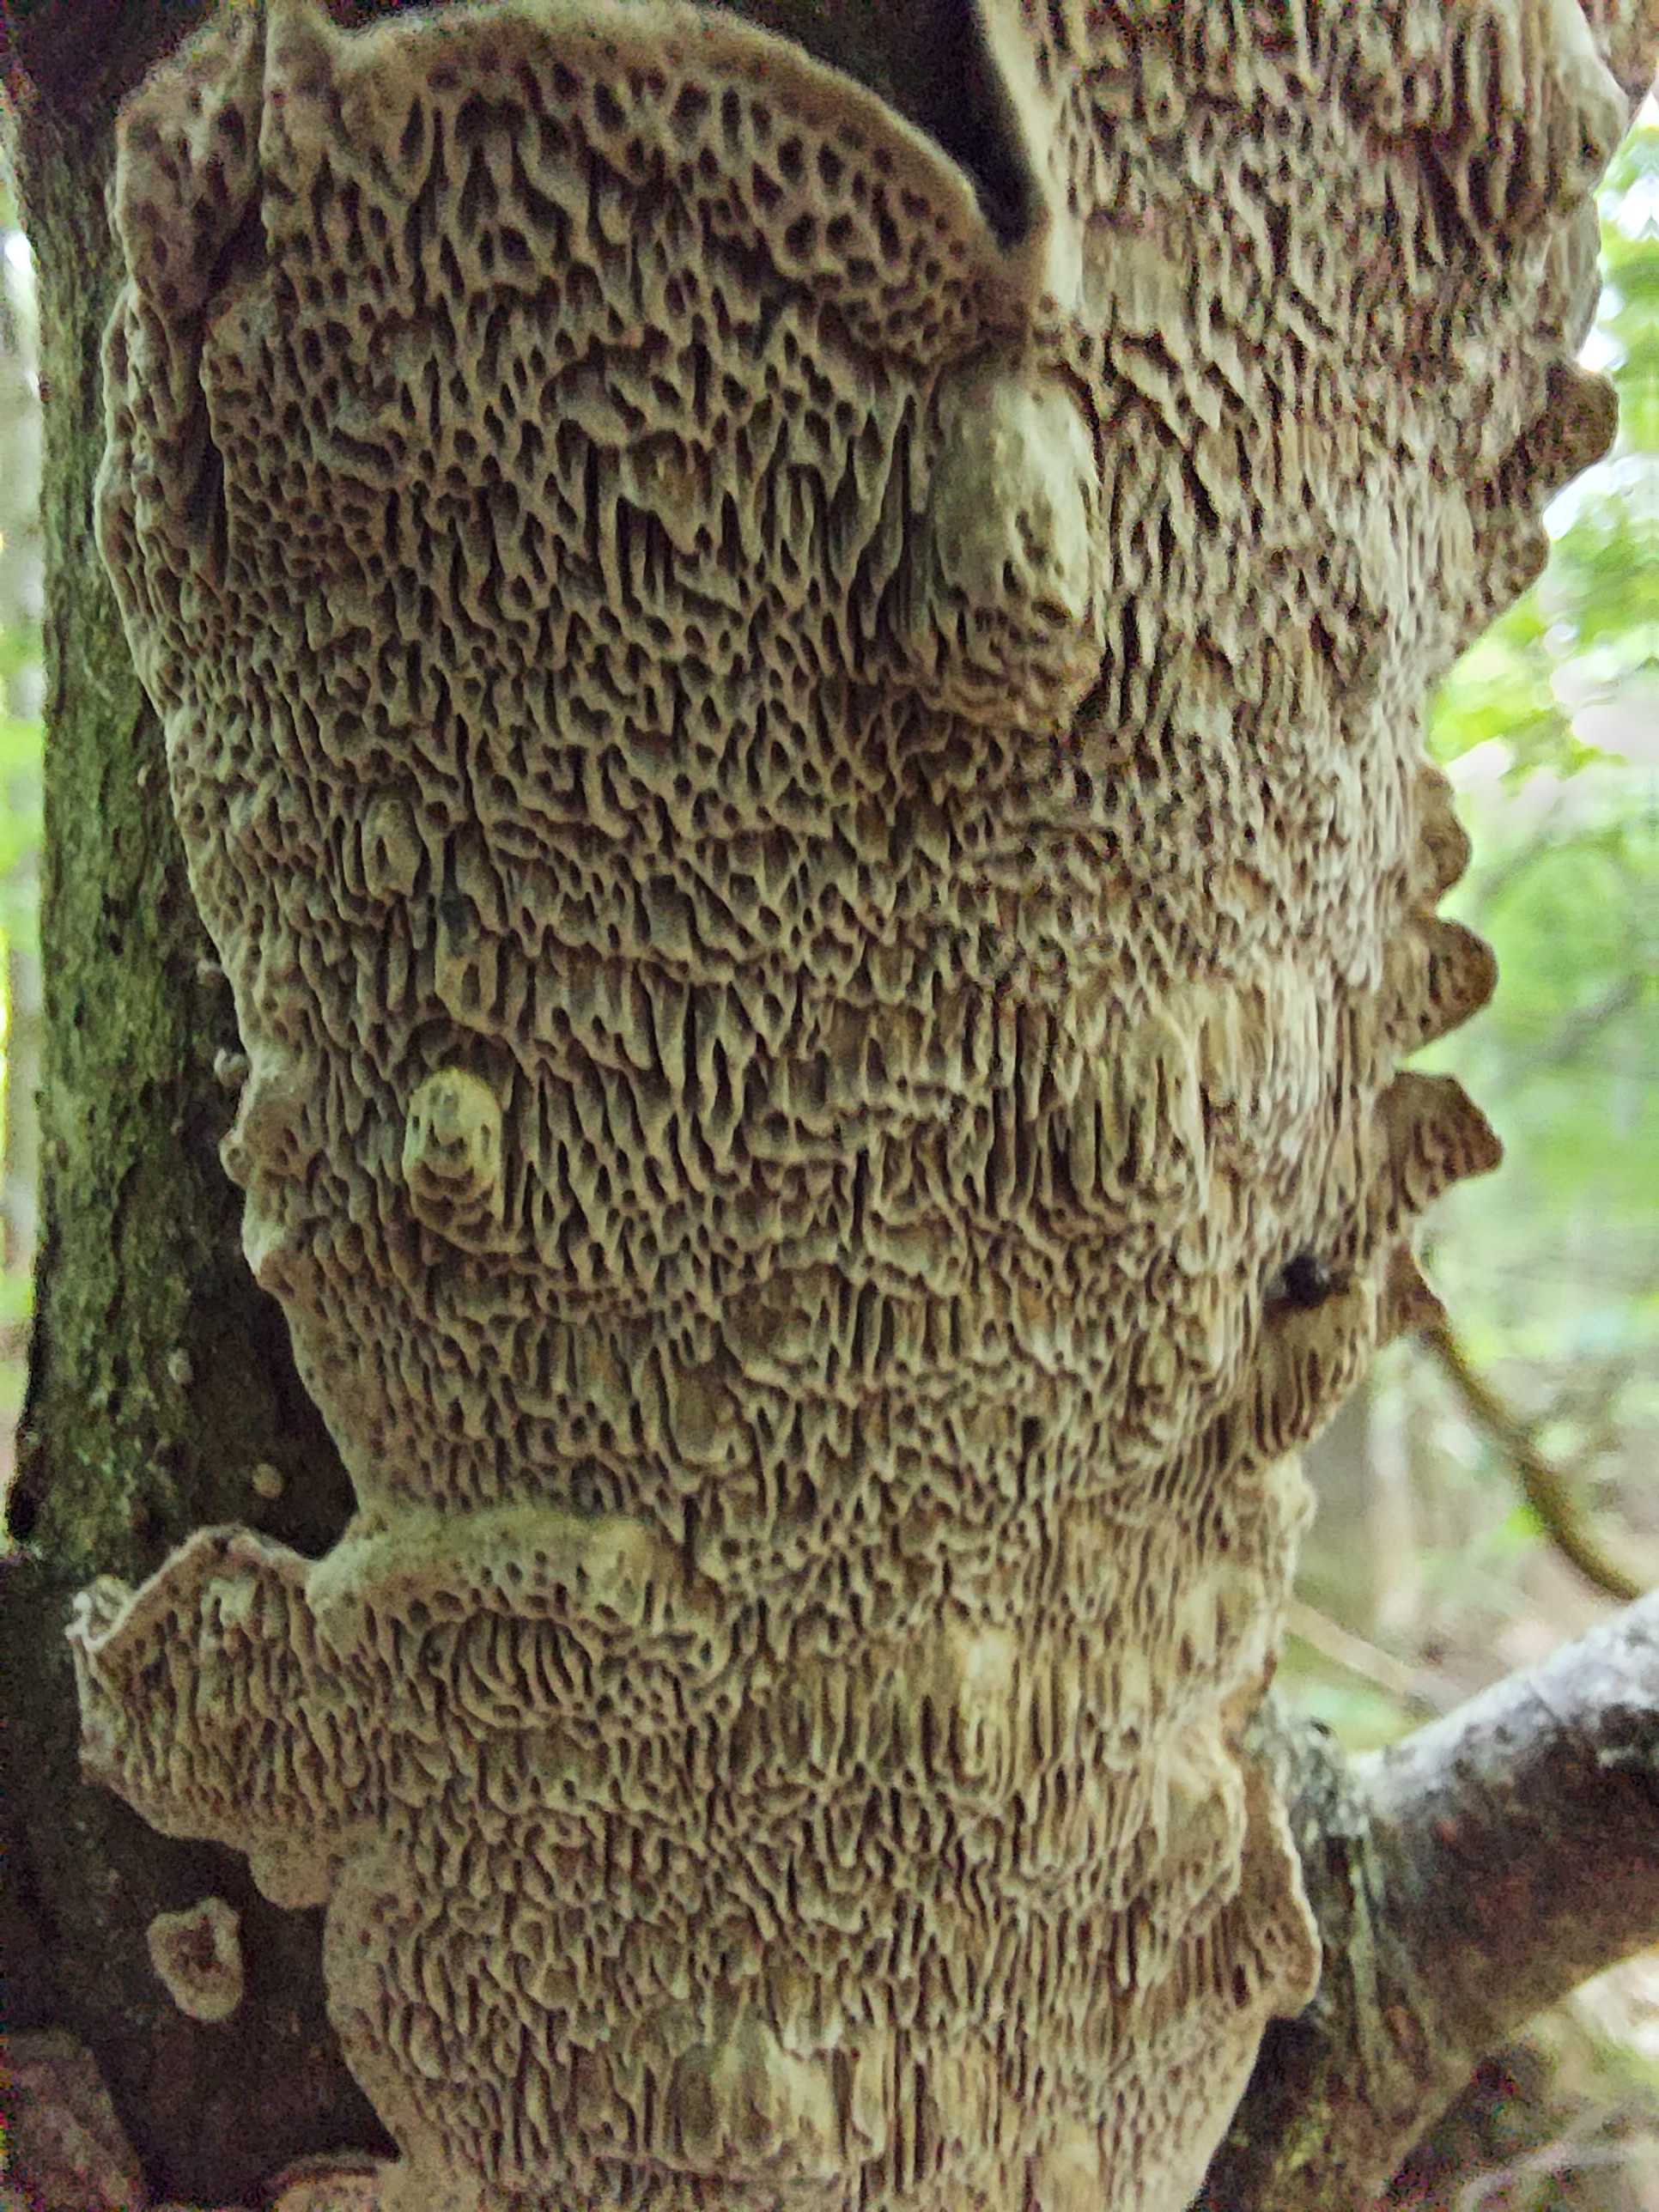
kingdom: Fungi
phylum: Basidiomycota
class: Agaricomycetes
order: Polyporales
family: Polyporaceae
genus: Podofomes
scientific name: Podofomes mollis
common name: blød begporesvamp
